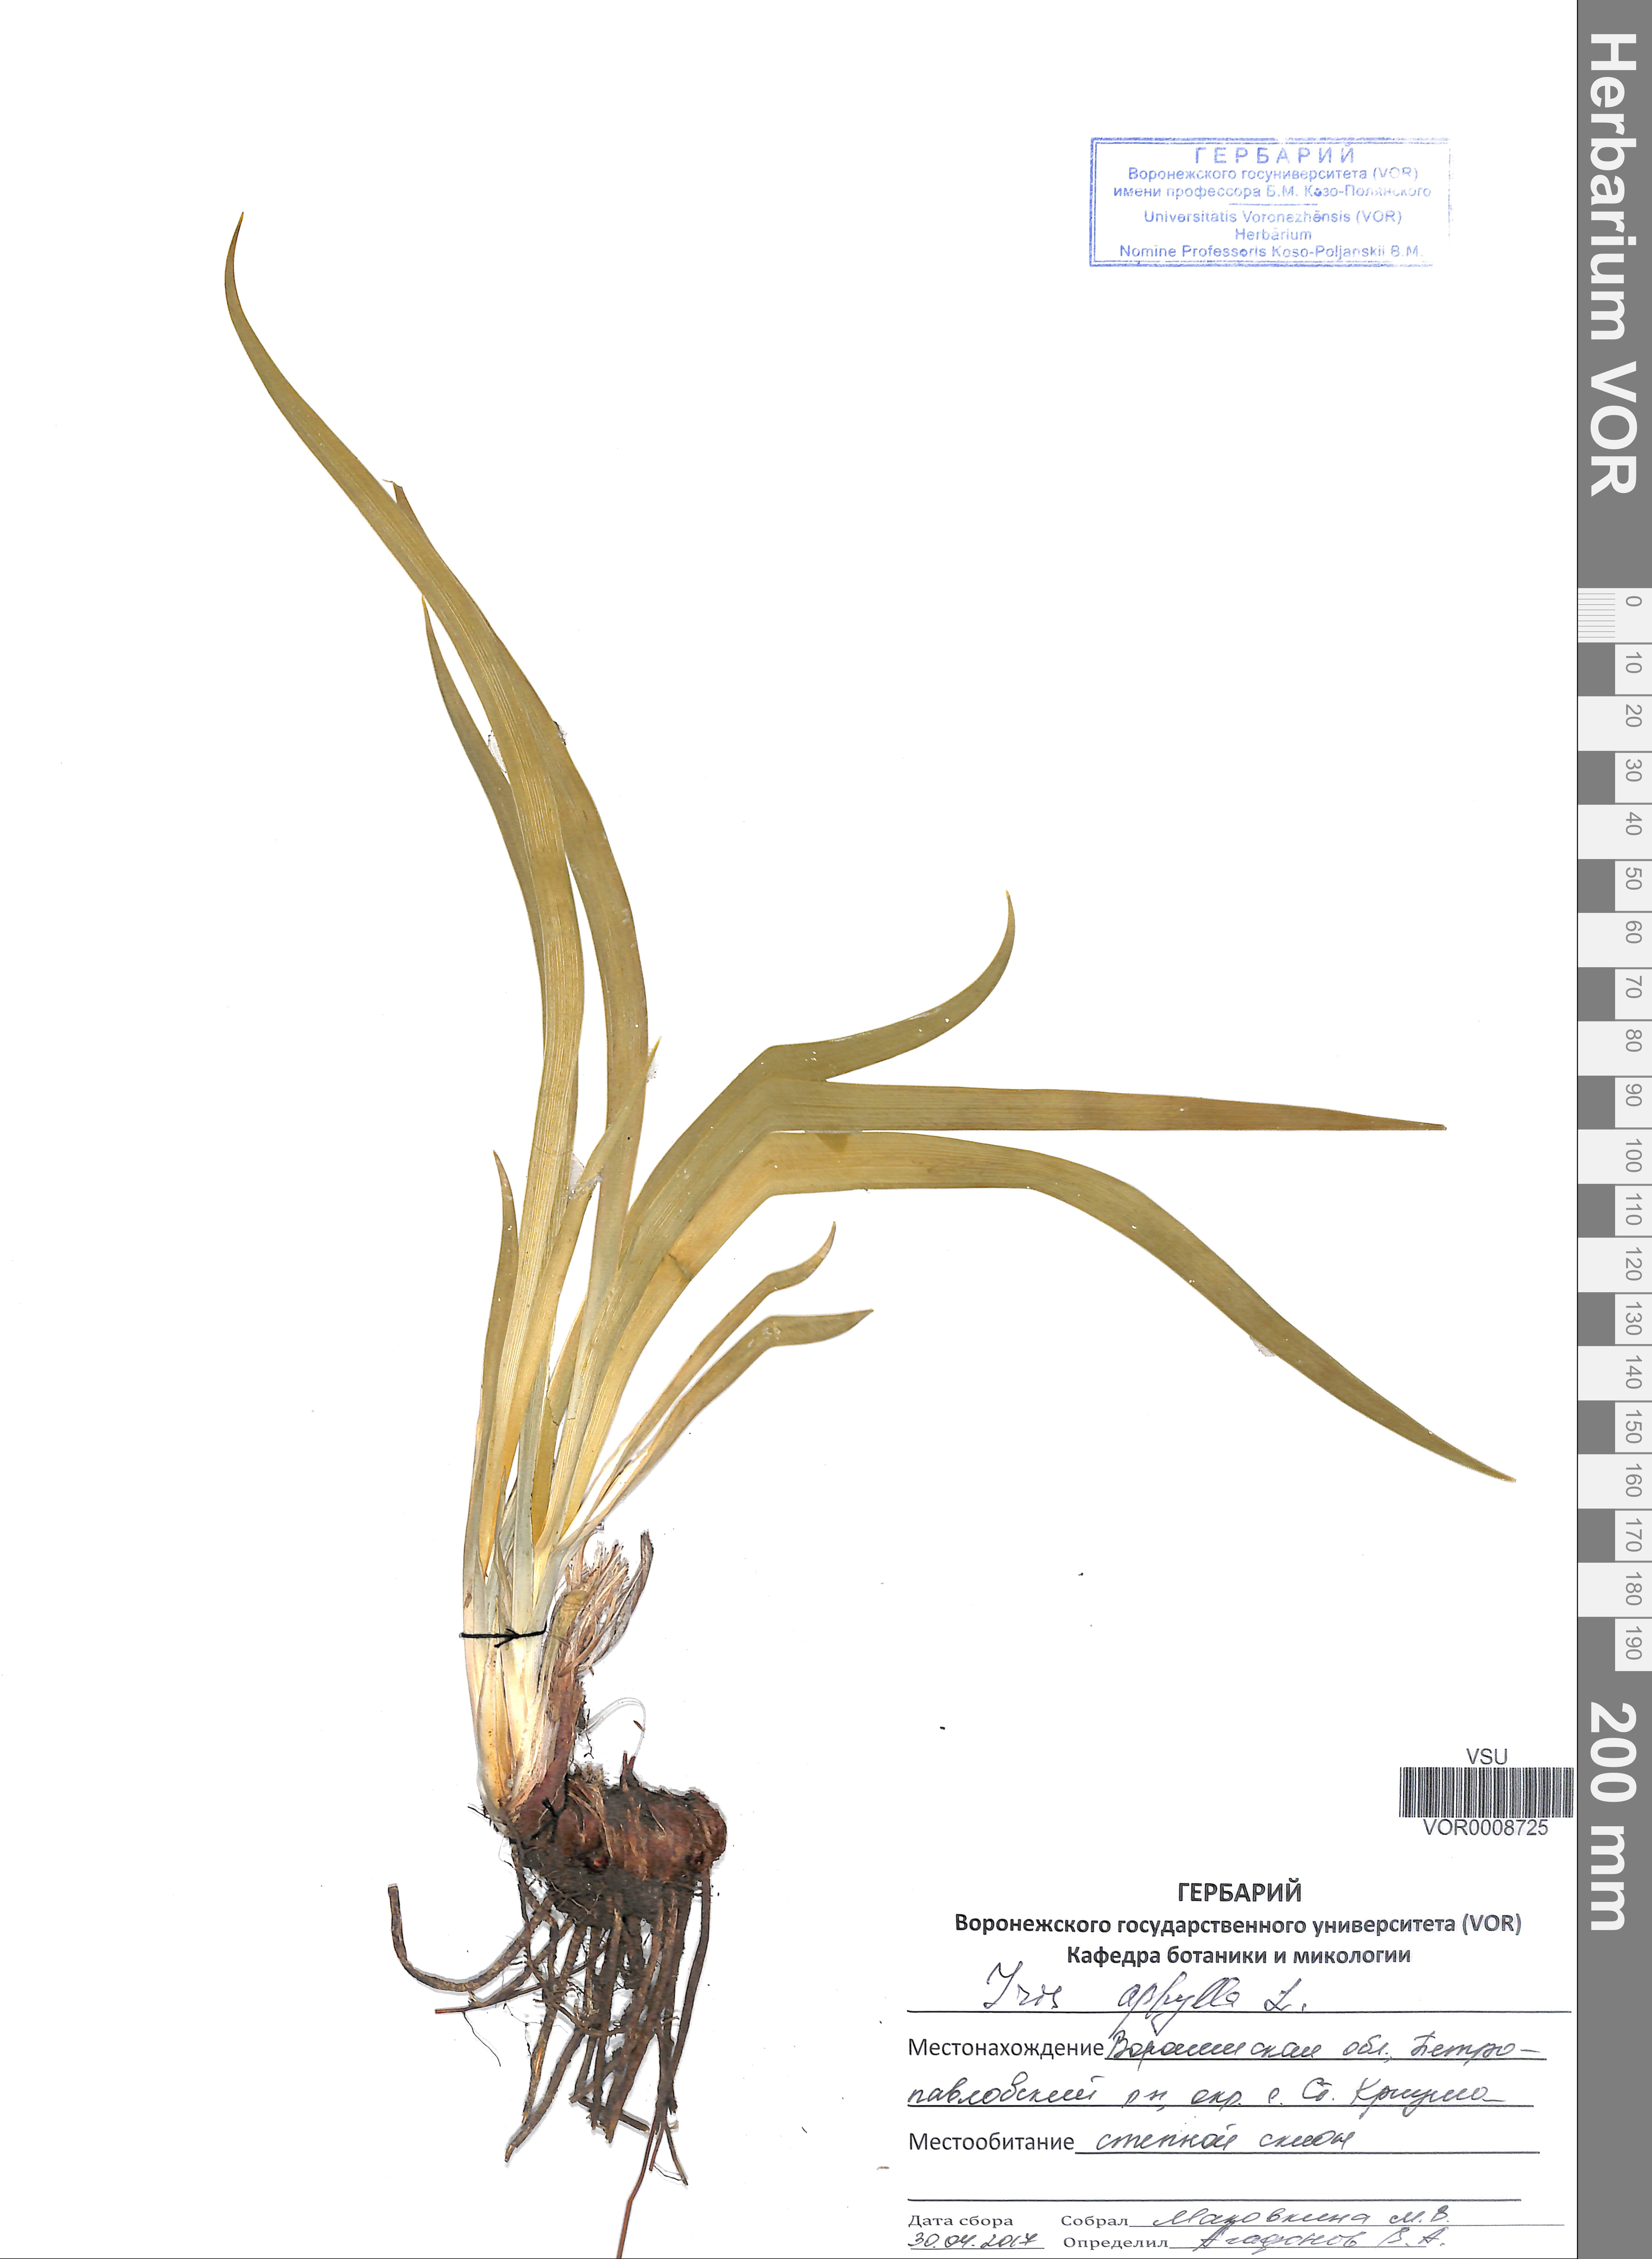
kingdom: Plantae
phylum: Tracheophyta
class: Liliopsida
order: Asparagales
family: Iridaceae
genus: Iris
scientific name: Iris aphylla
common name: Stool iris
